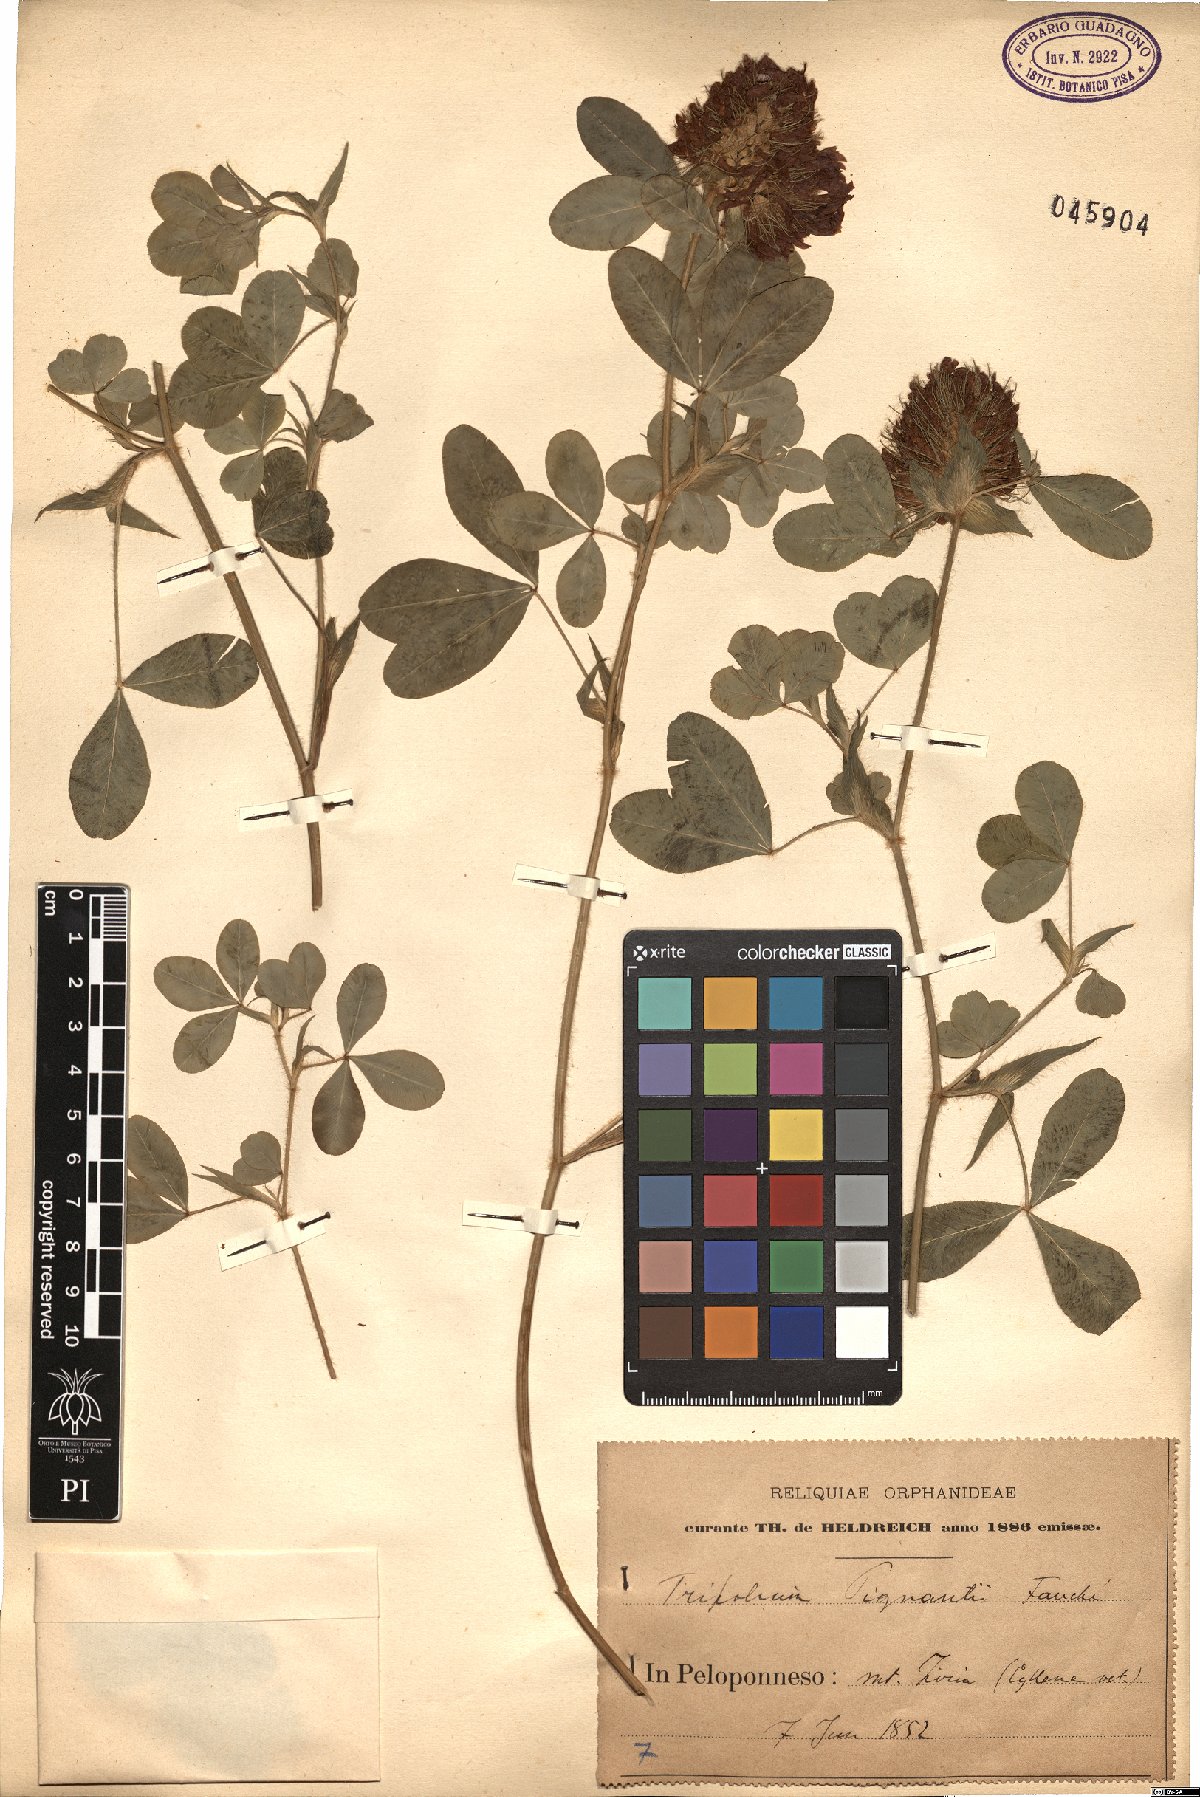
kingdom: Plantae
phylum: Tracheophyta
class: Magnoliopsida
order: Fabales
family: Fabaceae
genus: Trifolium
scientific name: Trifolium pignantii
